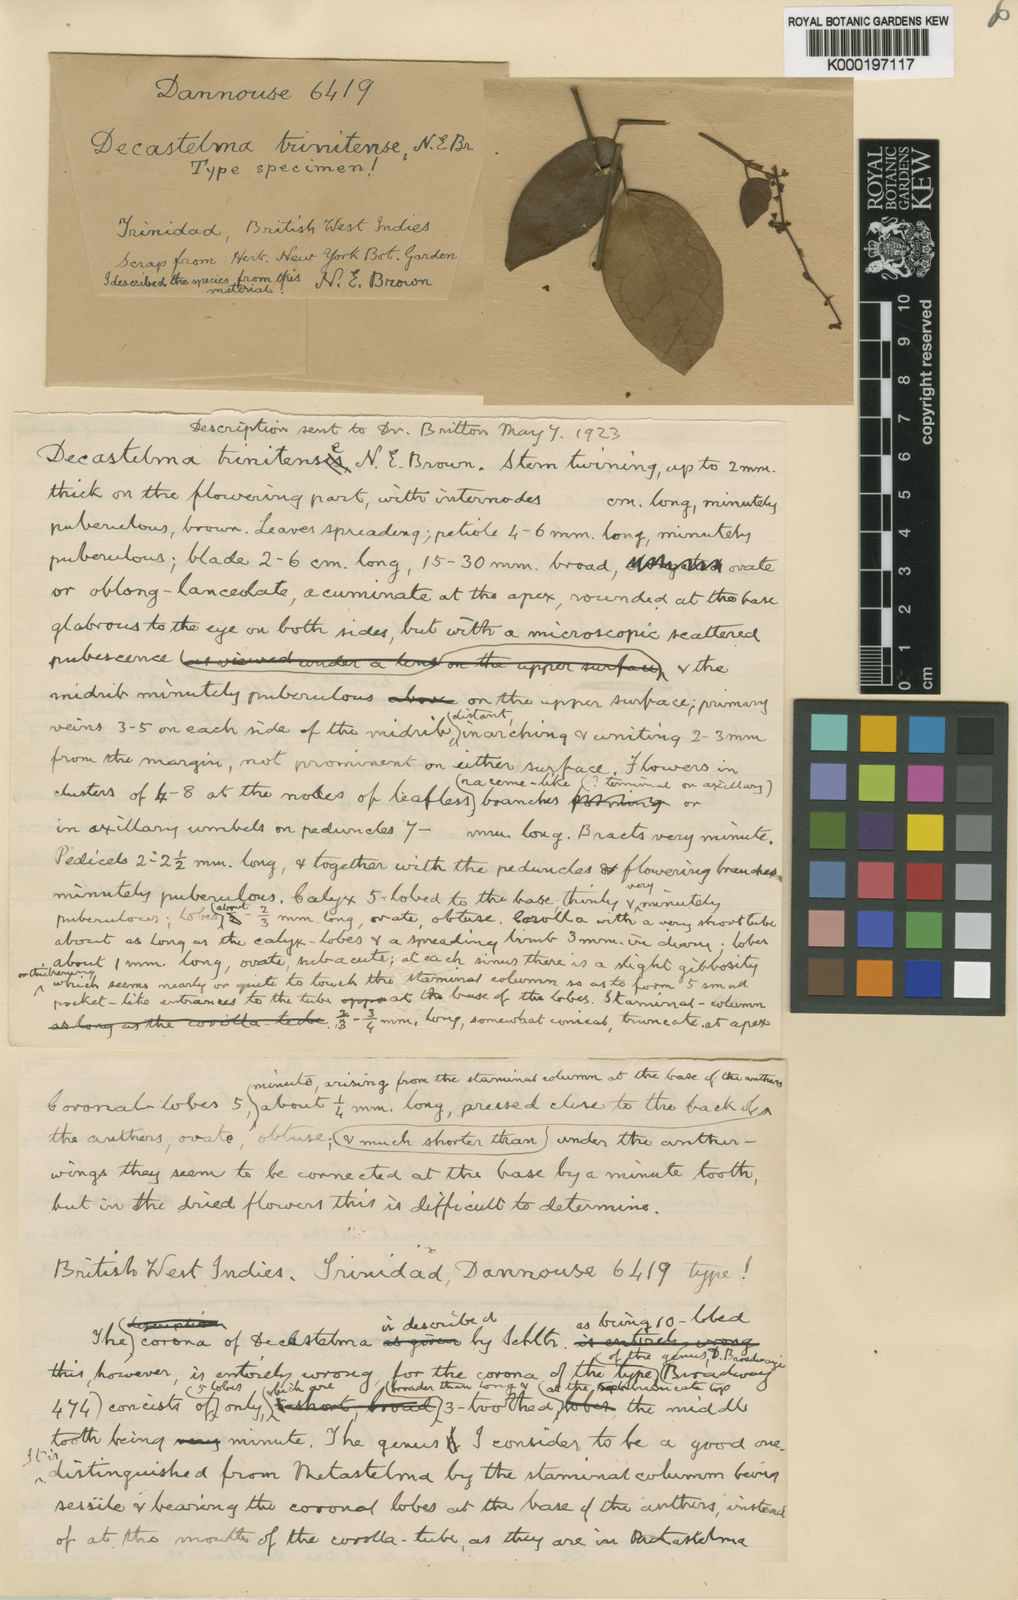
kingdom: Plantae
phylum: Tracheophyta
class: Magnoliopsida
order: Gentianales
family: Apocynaceae
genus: Tassadia
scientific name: Tassadia obovata
